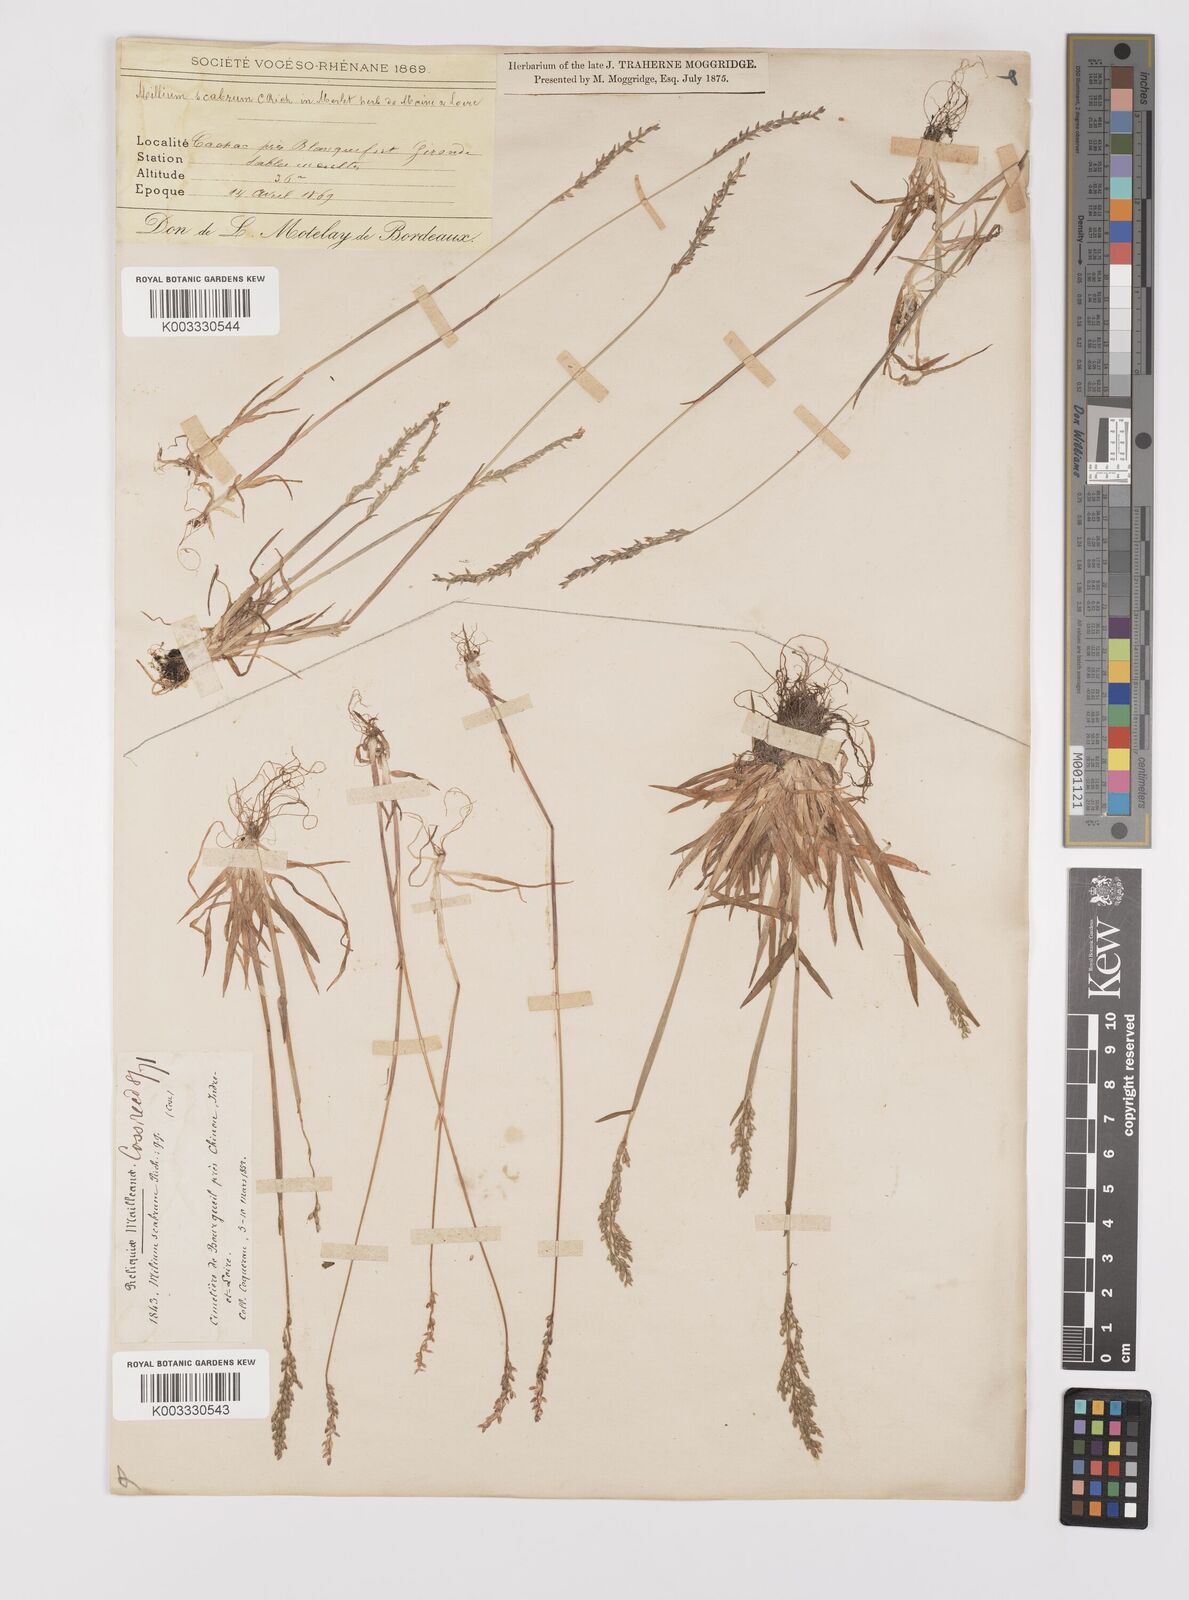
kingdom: Plantae
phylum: Tracheophyta
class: Liliopsida
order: Poales
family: Poaceae
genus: Milium
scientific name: Milium vernale
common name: Early millet
